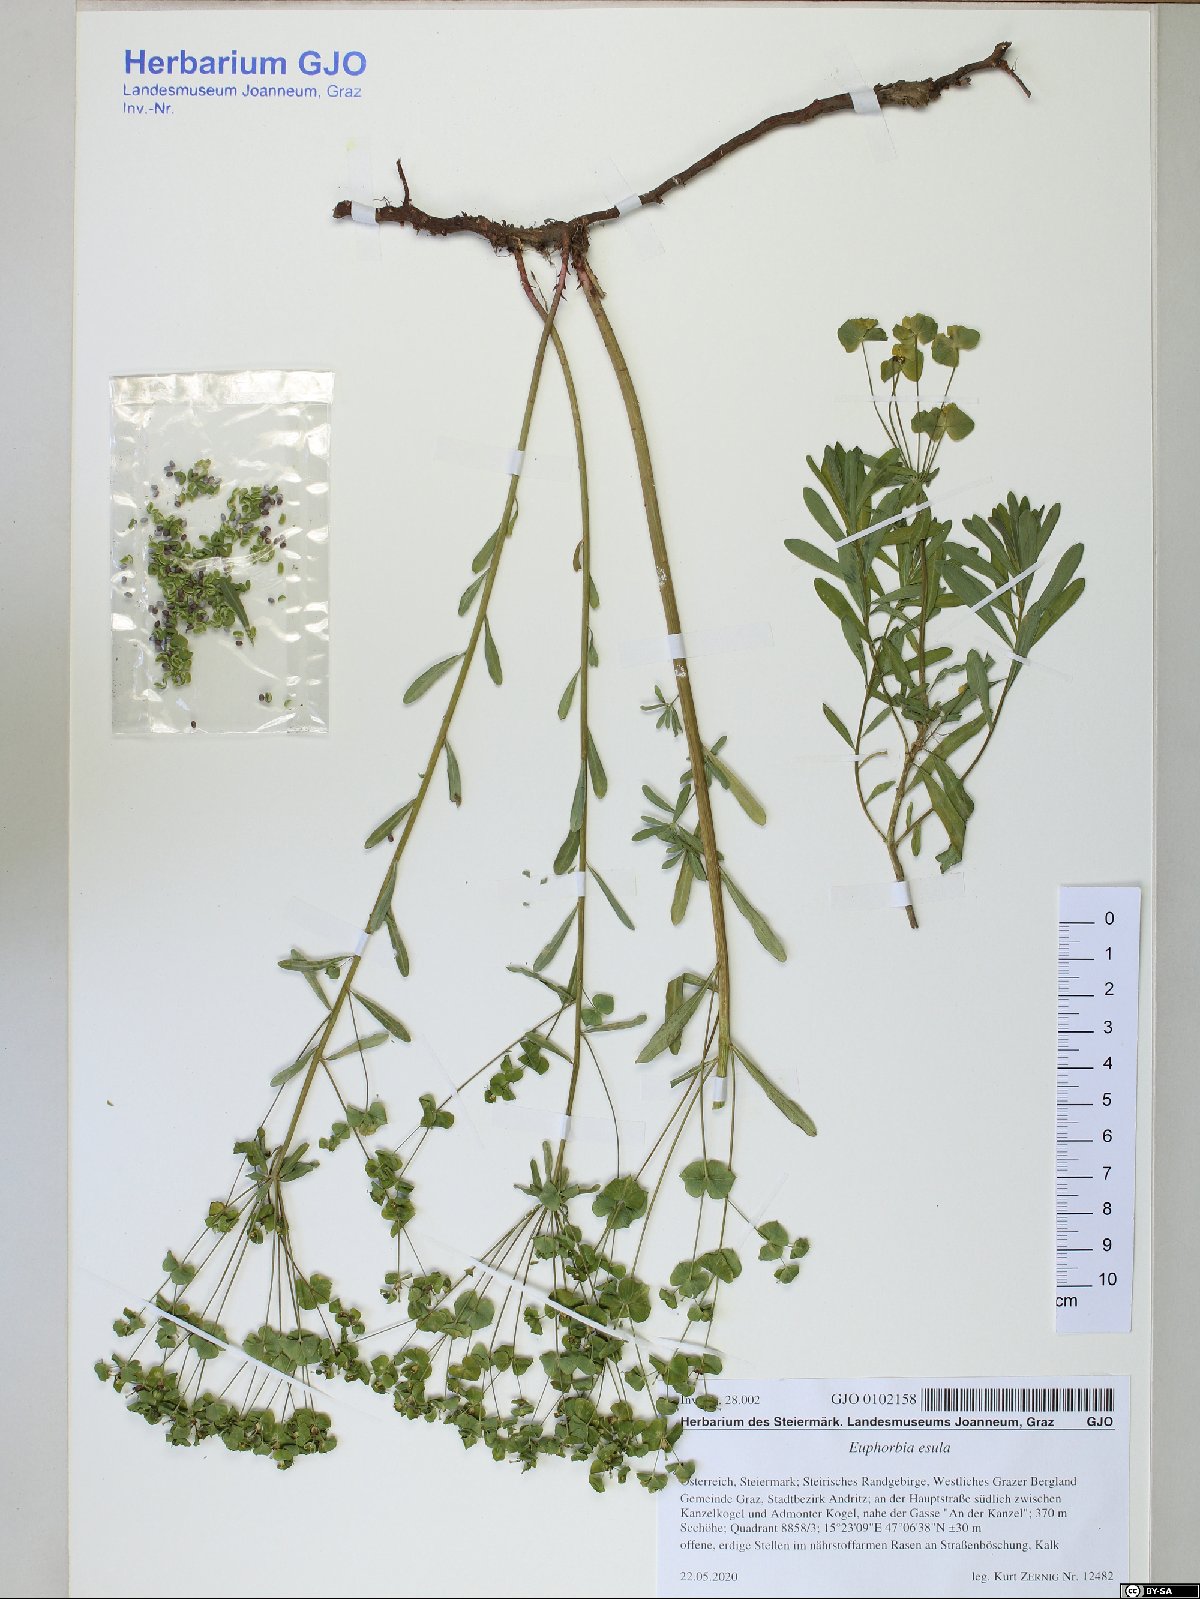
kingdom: Plantae
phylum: Tracheophyta
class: Magnoliopsida
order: Malpighiales
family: Euphorbiaceae
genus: Euphorbia
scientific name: Euphorbia esula
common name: Leafy spurge
